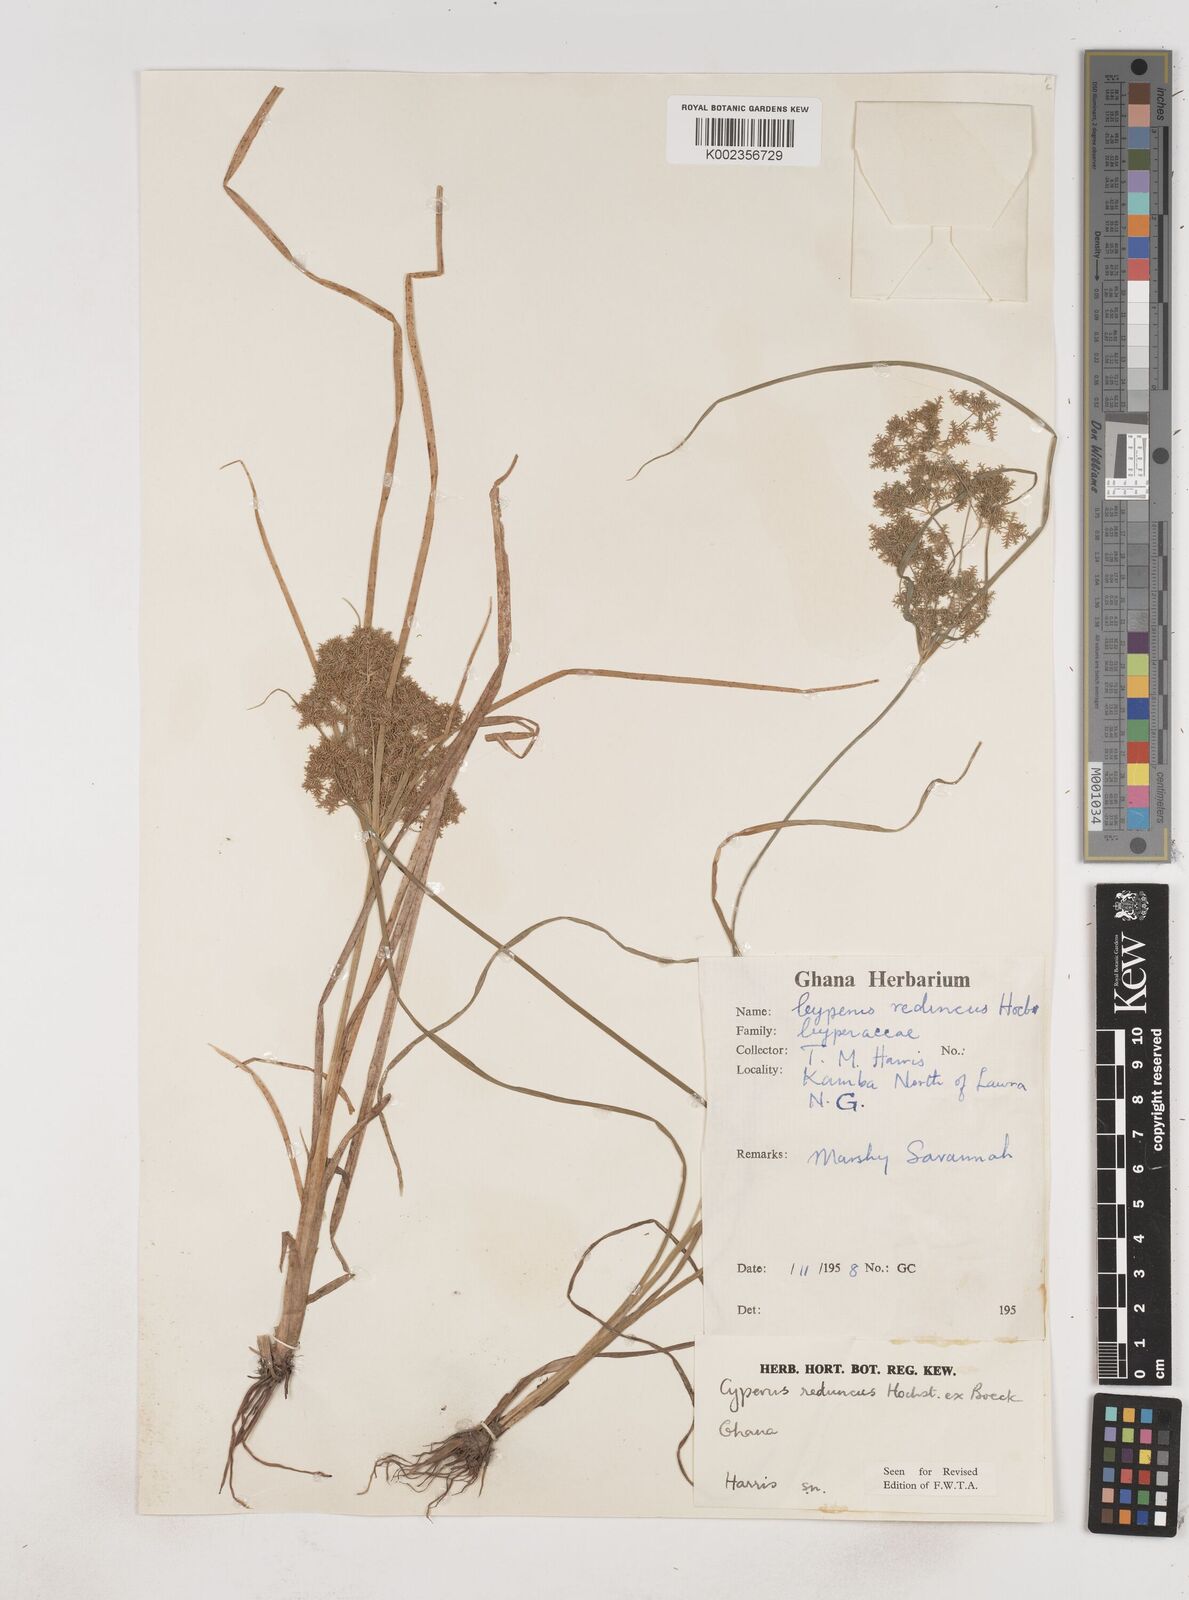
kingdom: Plantae
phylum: Tracheophyta
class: Liliopsida
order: Poales
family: Cyperaceae
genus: Cyperus
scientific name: Cyperus reduncus
